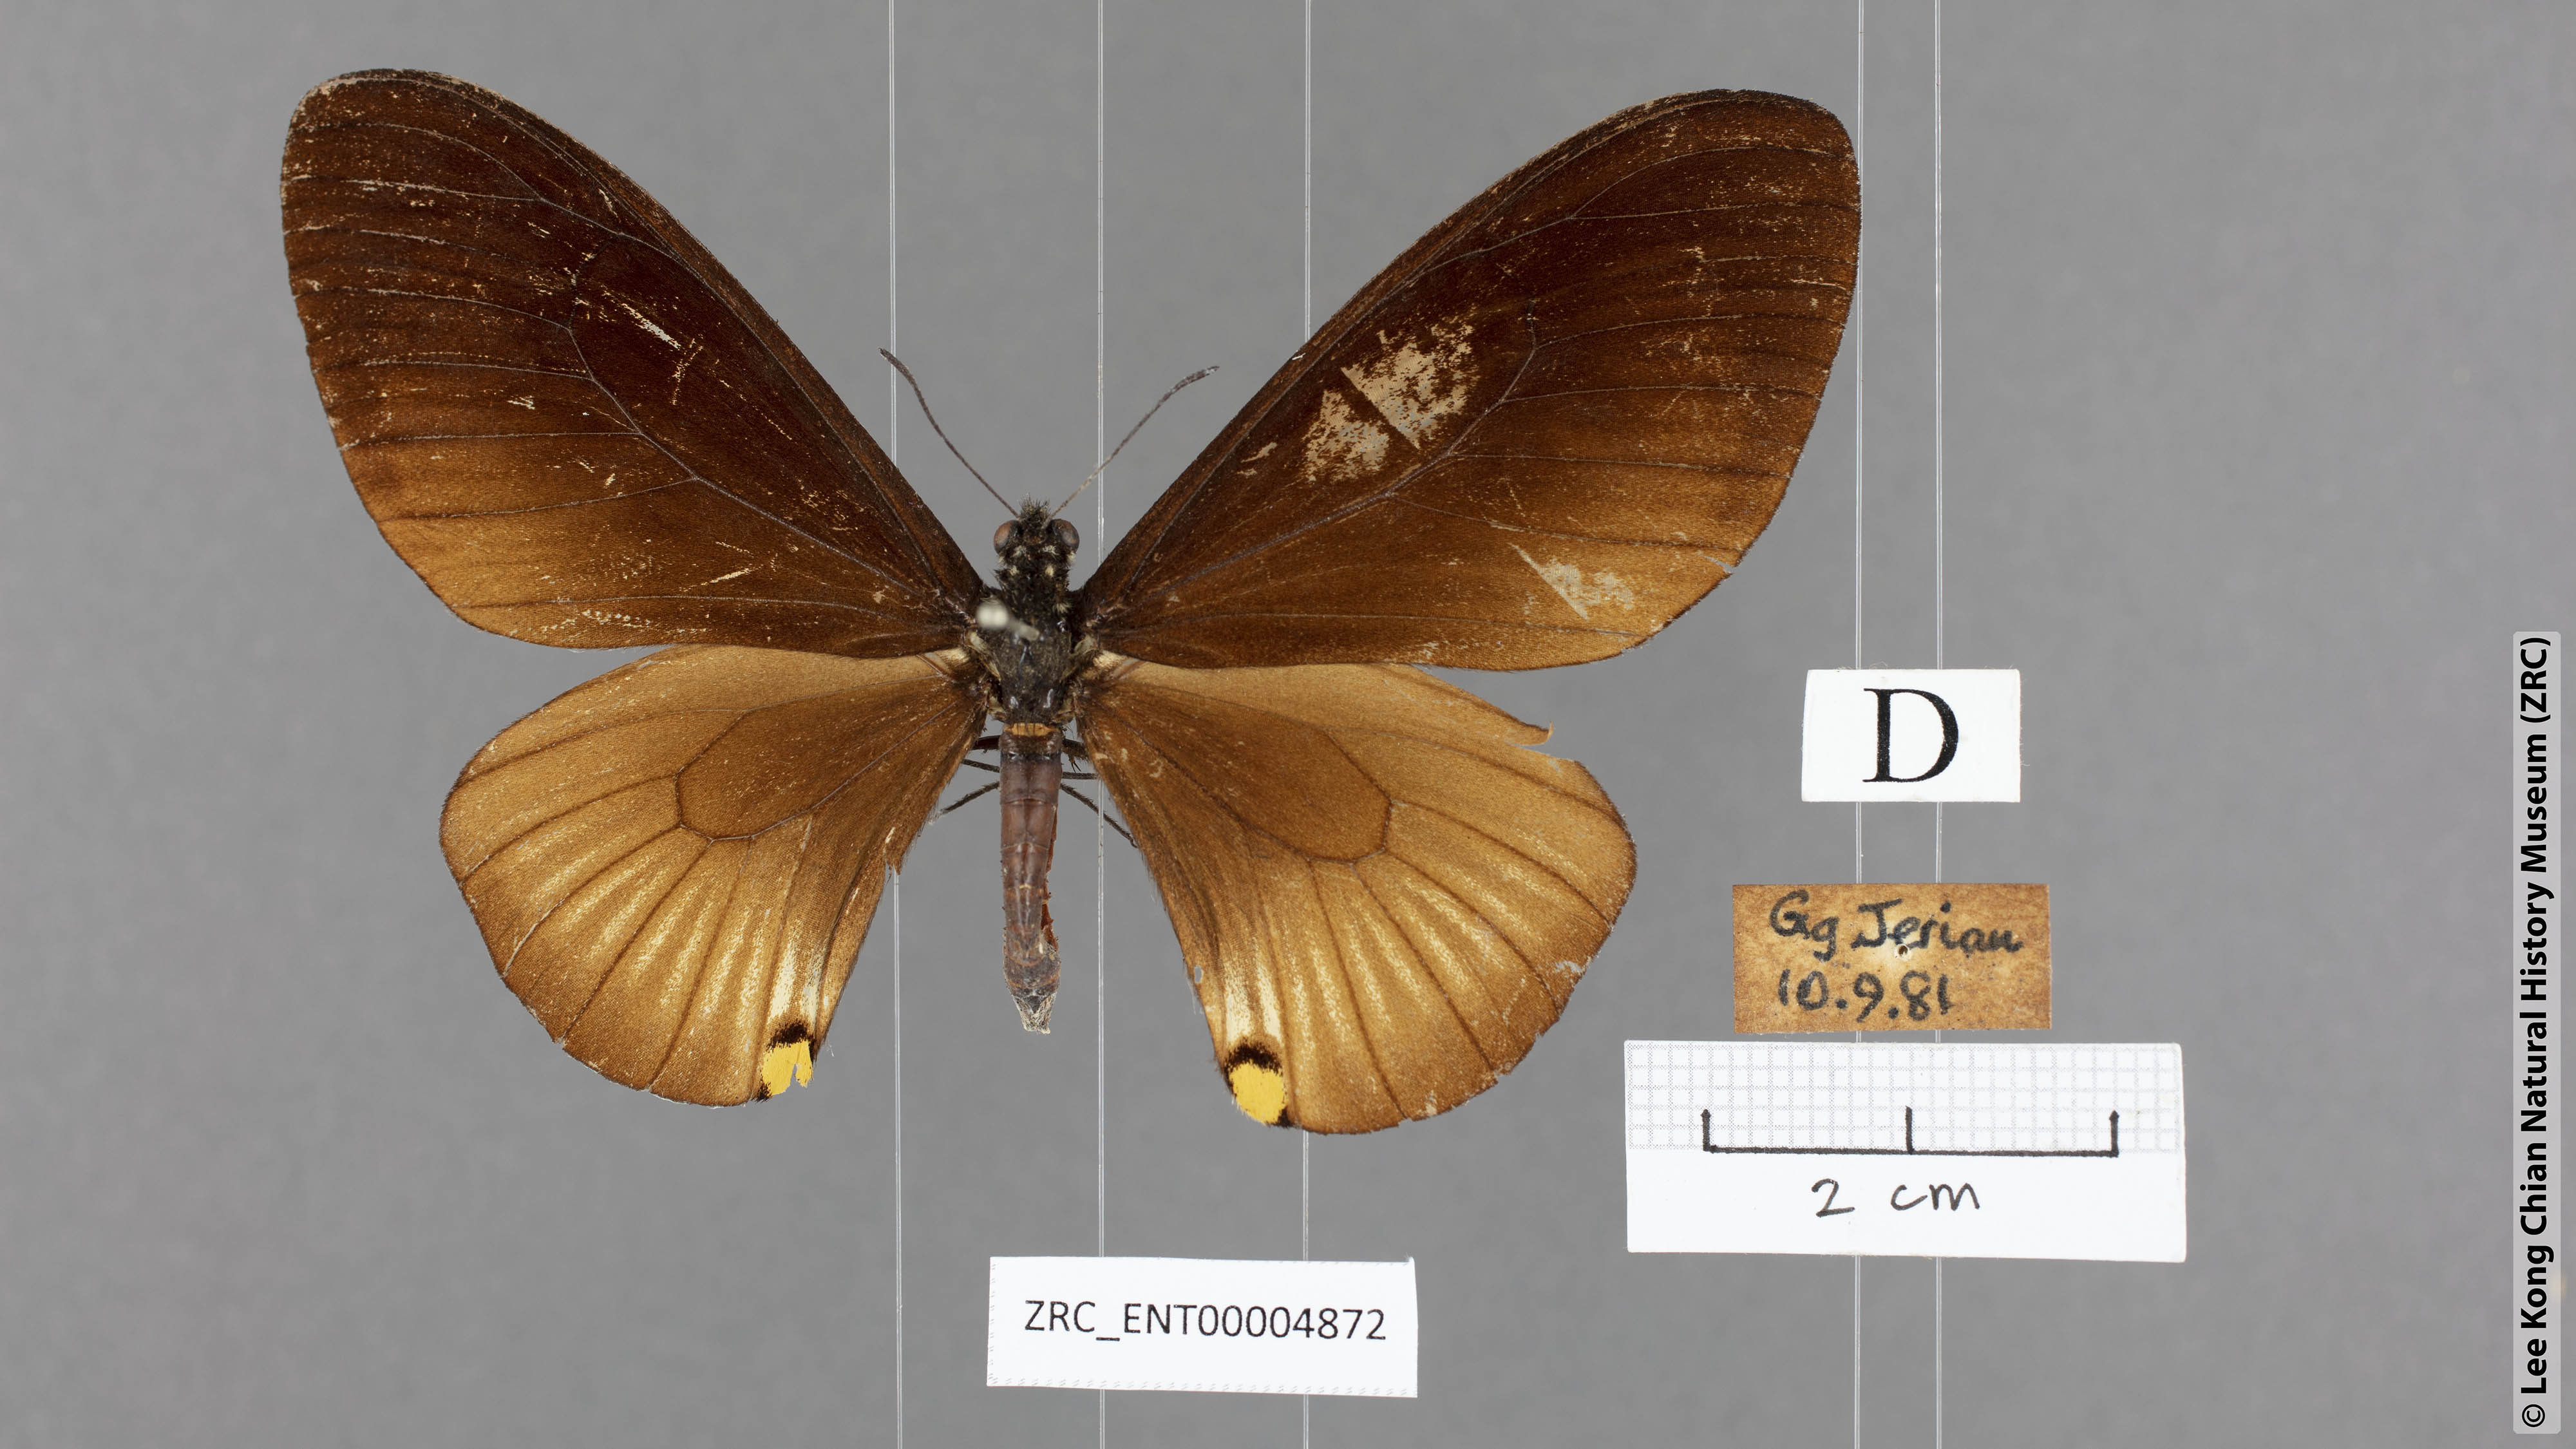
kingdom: Animalia
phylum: Arthropoda
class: Insecta
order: Lepidoptera
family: Papilionidae
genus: Chilasa
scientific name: Chilasa slateri
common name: Blue-striped mime
